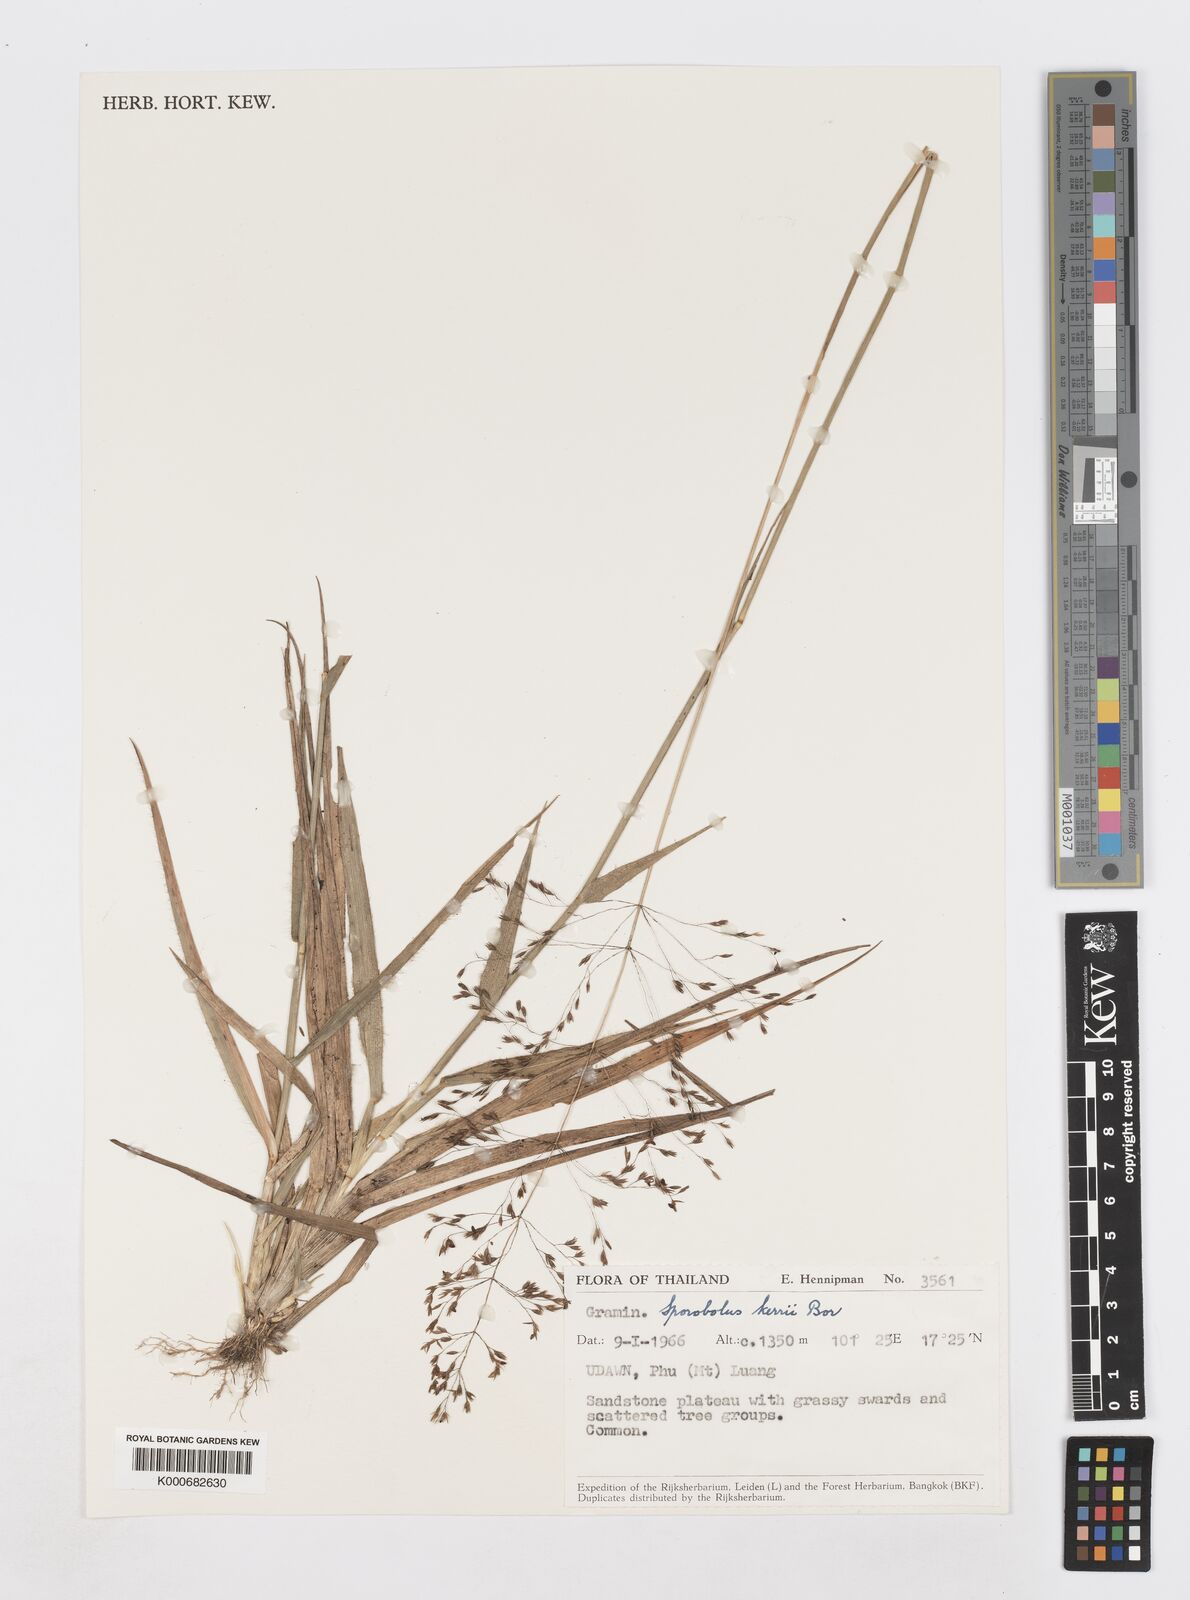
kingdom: Plantae
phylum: Tracheophyta
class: Liliopsida
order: Poales
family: Poaceae
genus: Sporobolus
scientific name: Sporobolus kerrii
